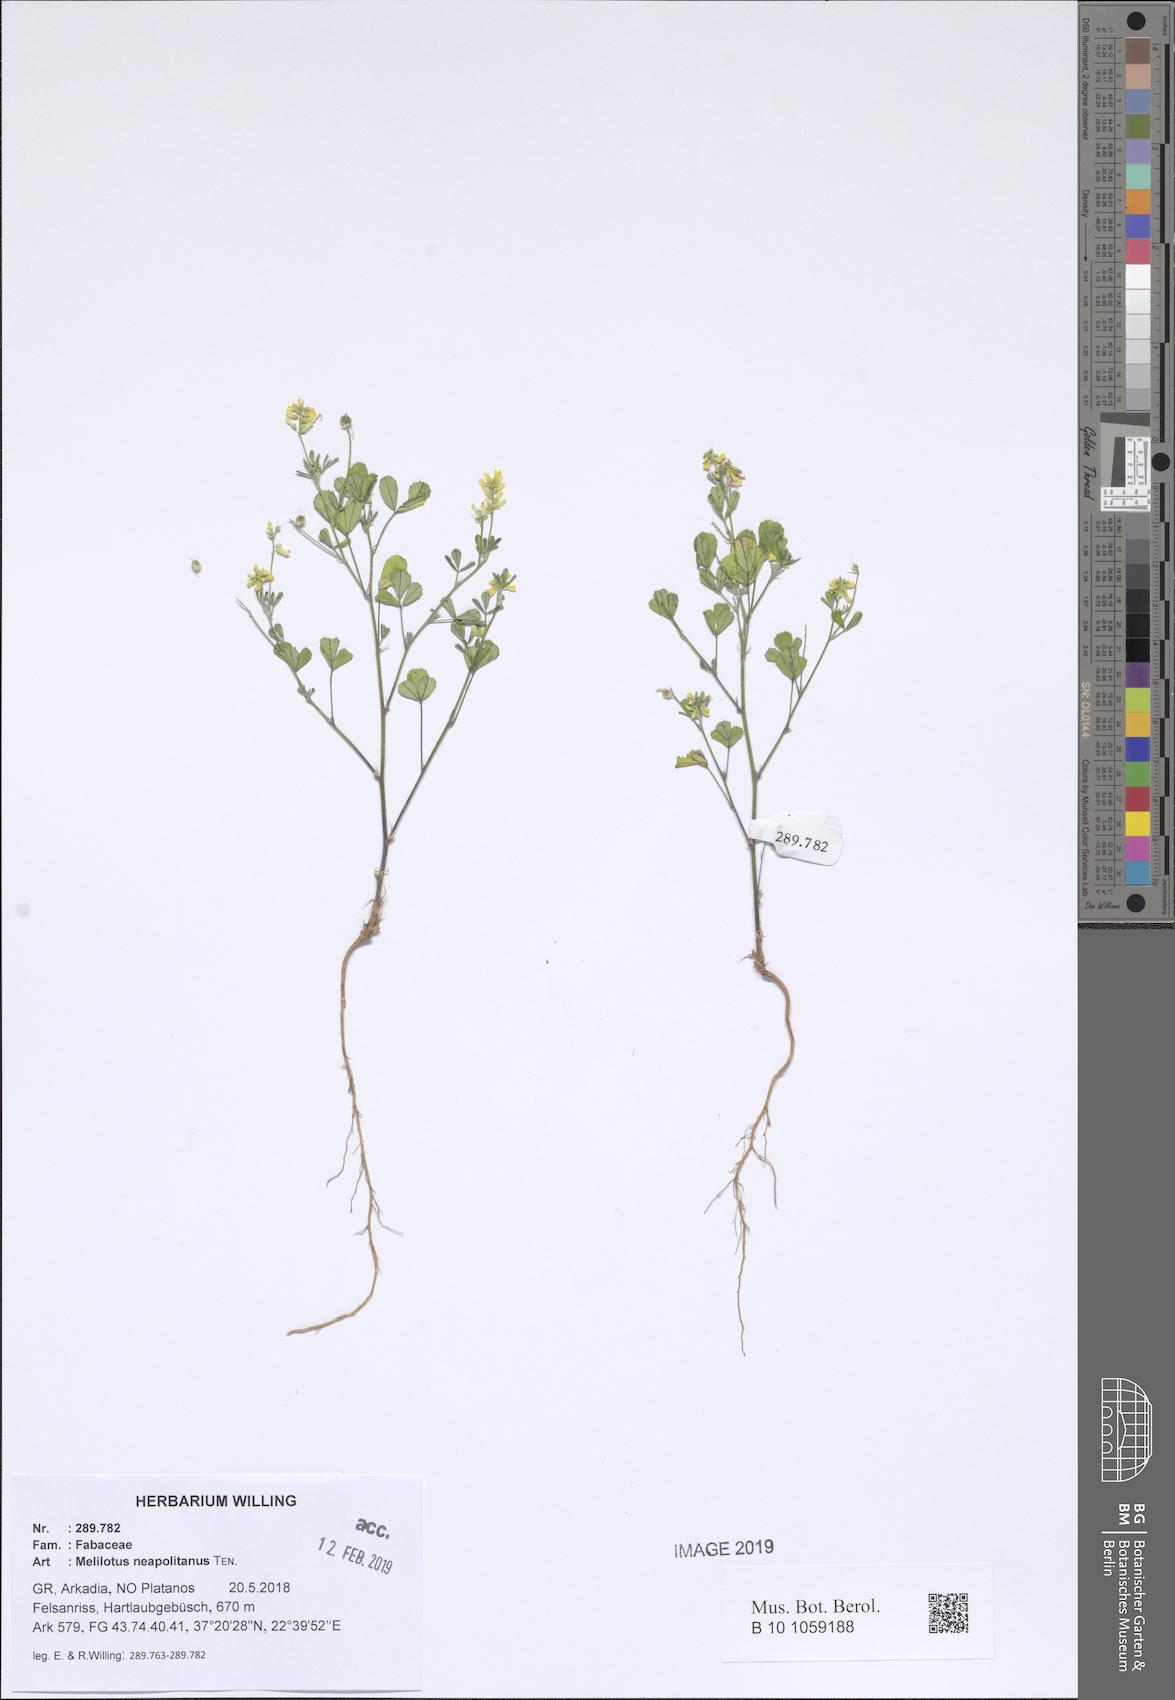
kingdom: Plantae
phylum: Tracheophyta
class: Magnoliopsida
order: Fabales
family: Fabaceae
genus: Melilotus
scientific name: Melilotus neapolitanus
